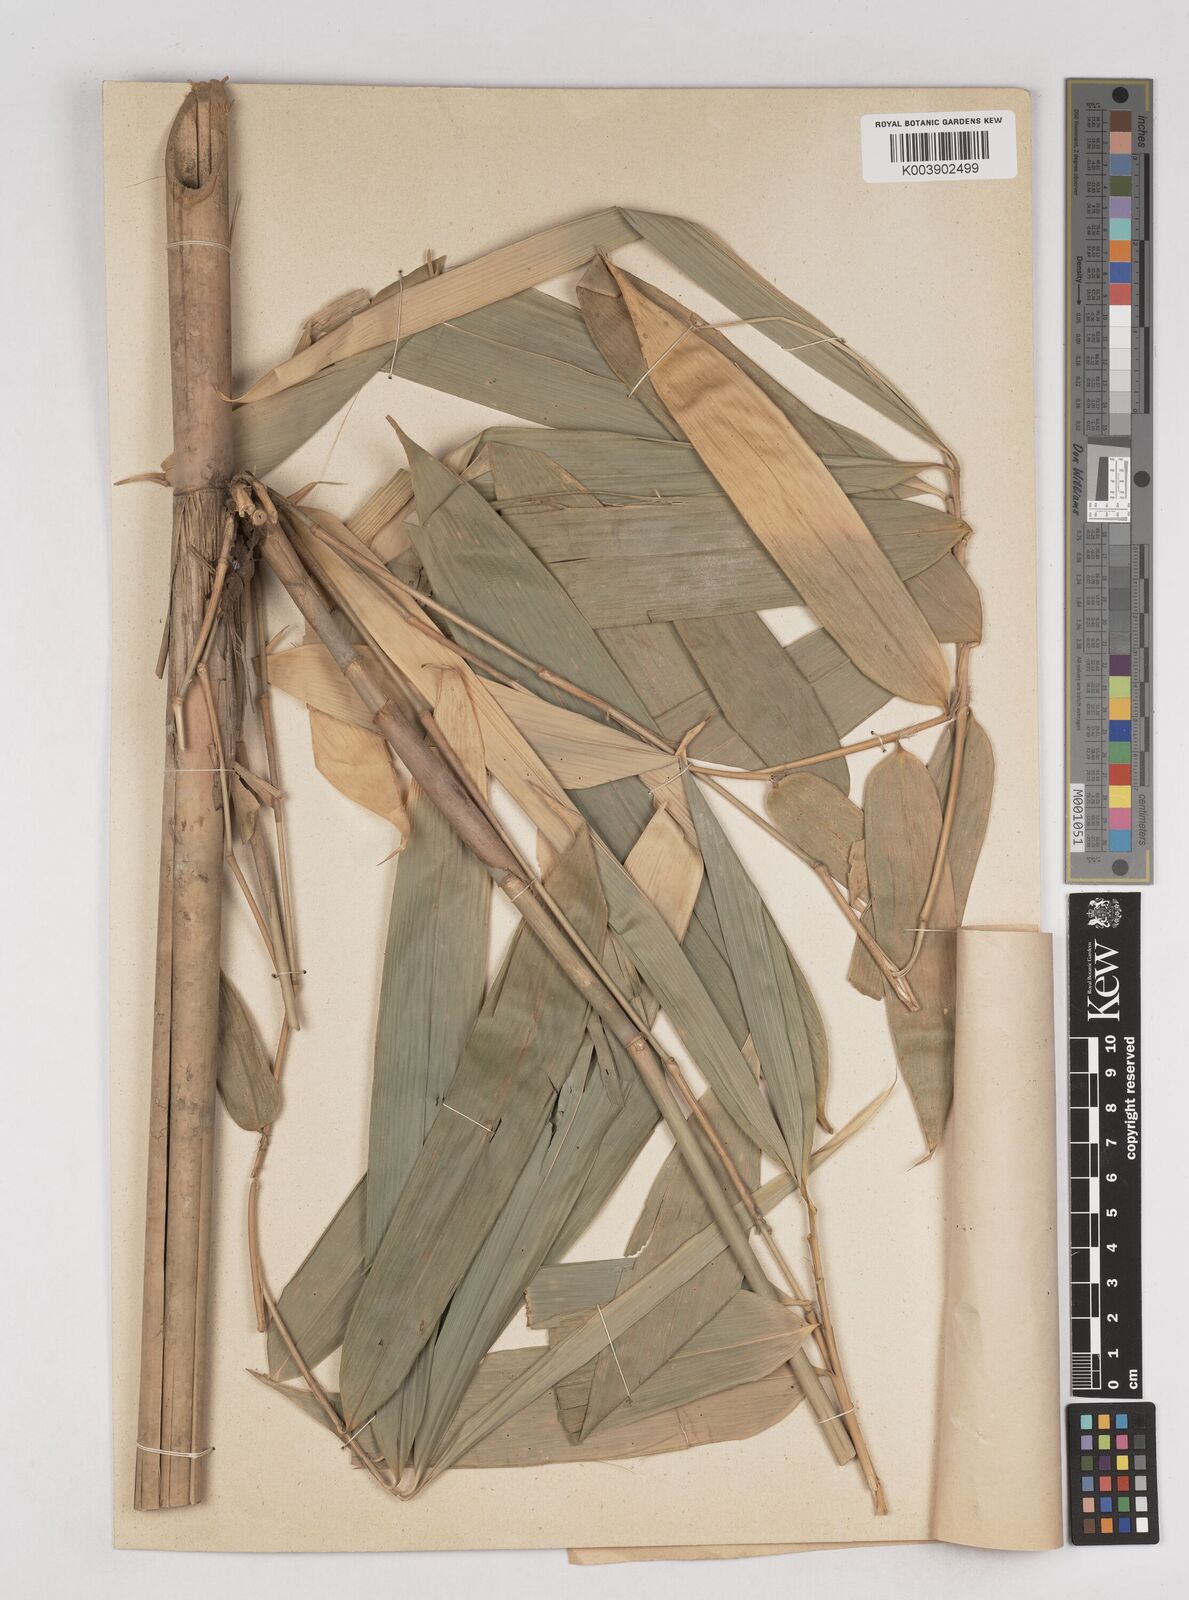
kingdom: Plantae
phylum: Tracheophyta
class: Liliopsida
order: Poales
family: Poaceae
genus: Schizostachyum
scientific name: Schizostachyum
